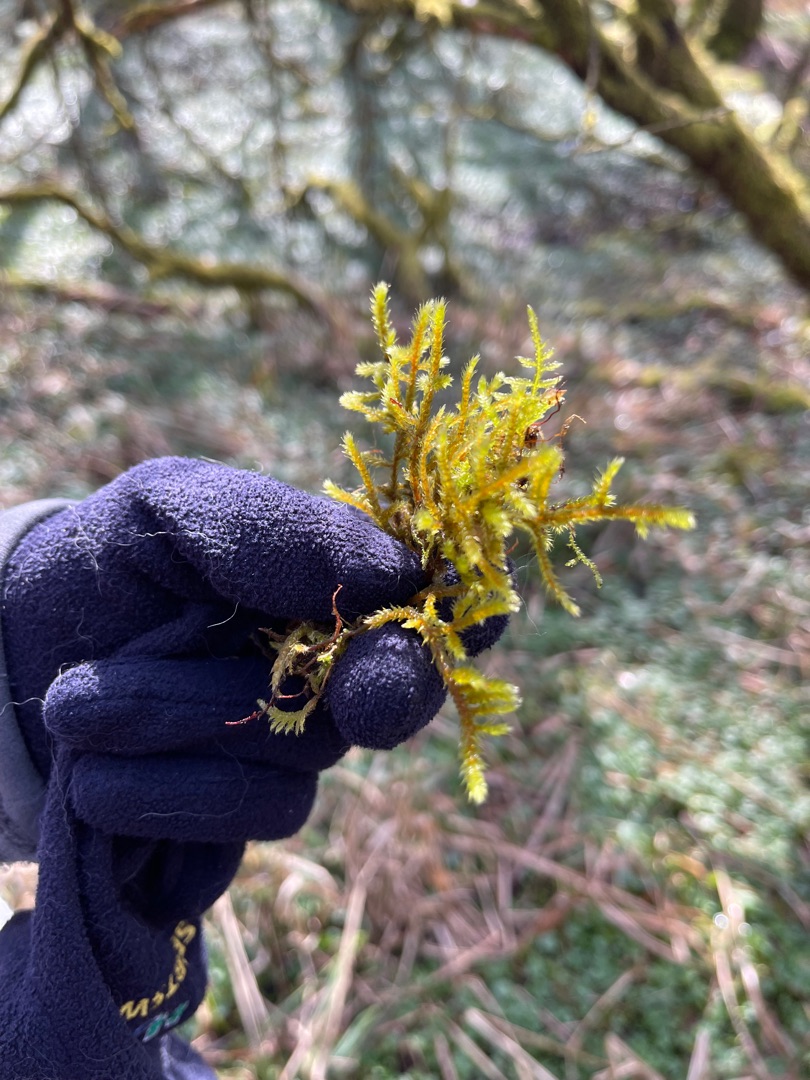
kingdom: Plantae
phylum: Bryophyta
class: Bryopsida
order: Hypnales
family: Antitrichiaceae
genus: Antitrichia
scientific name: Antitrichia curtipendula
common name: Åben krogtand
